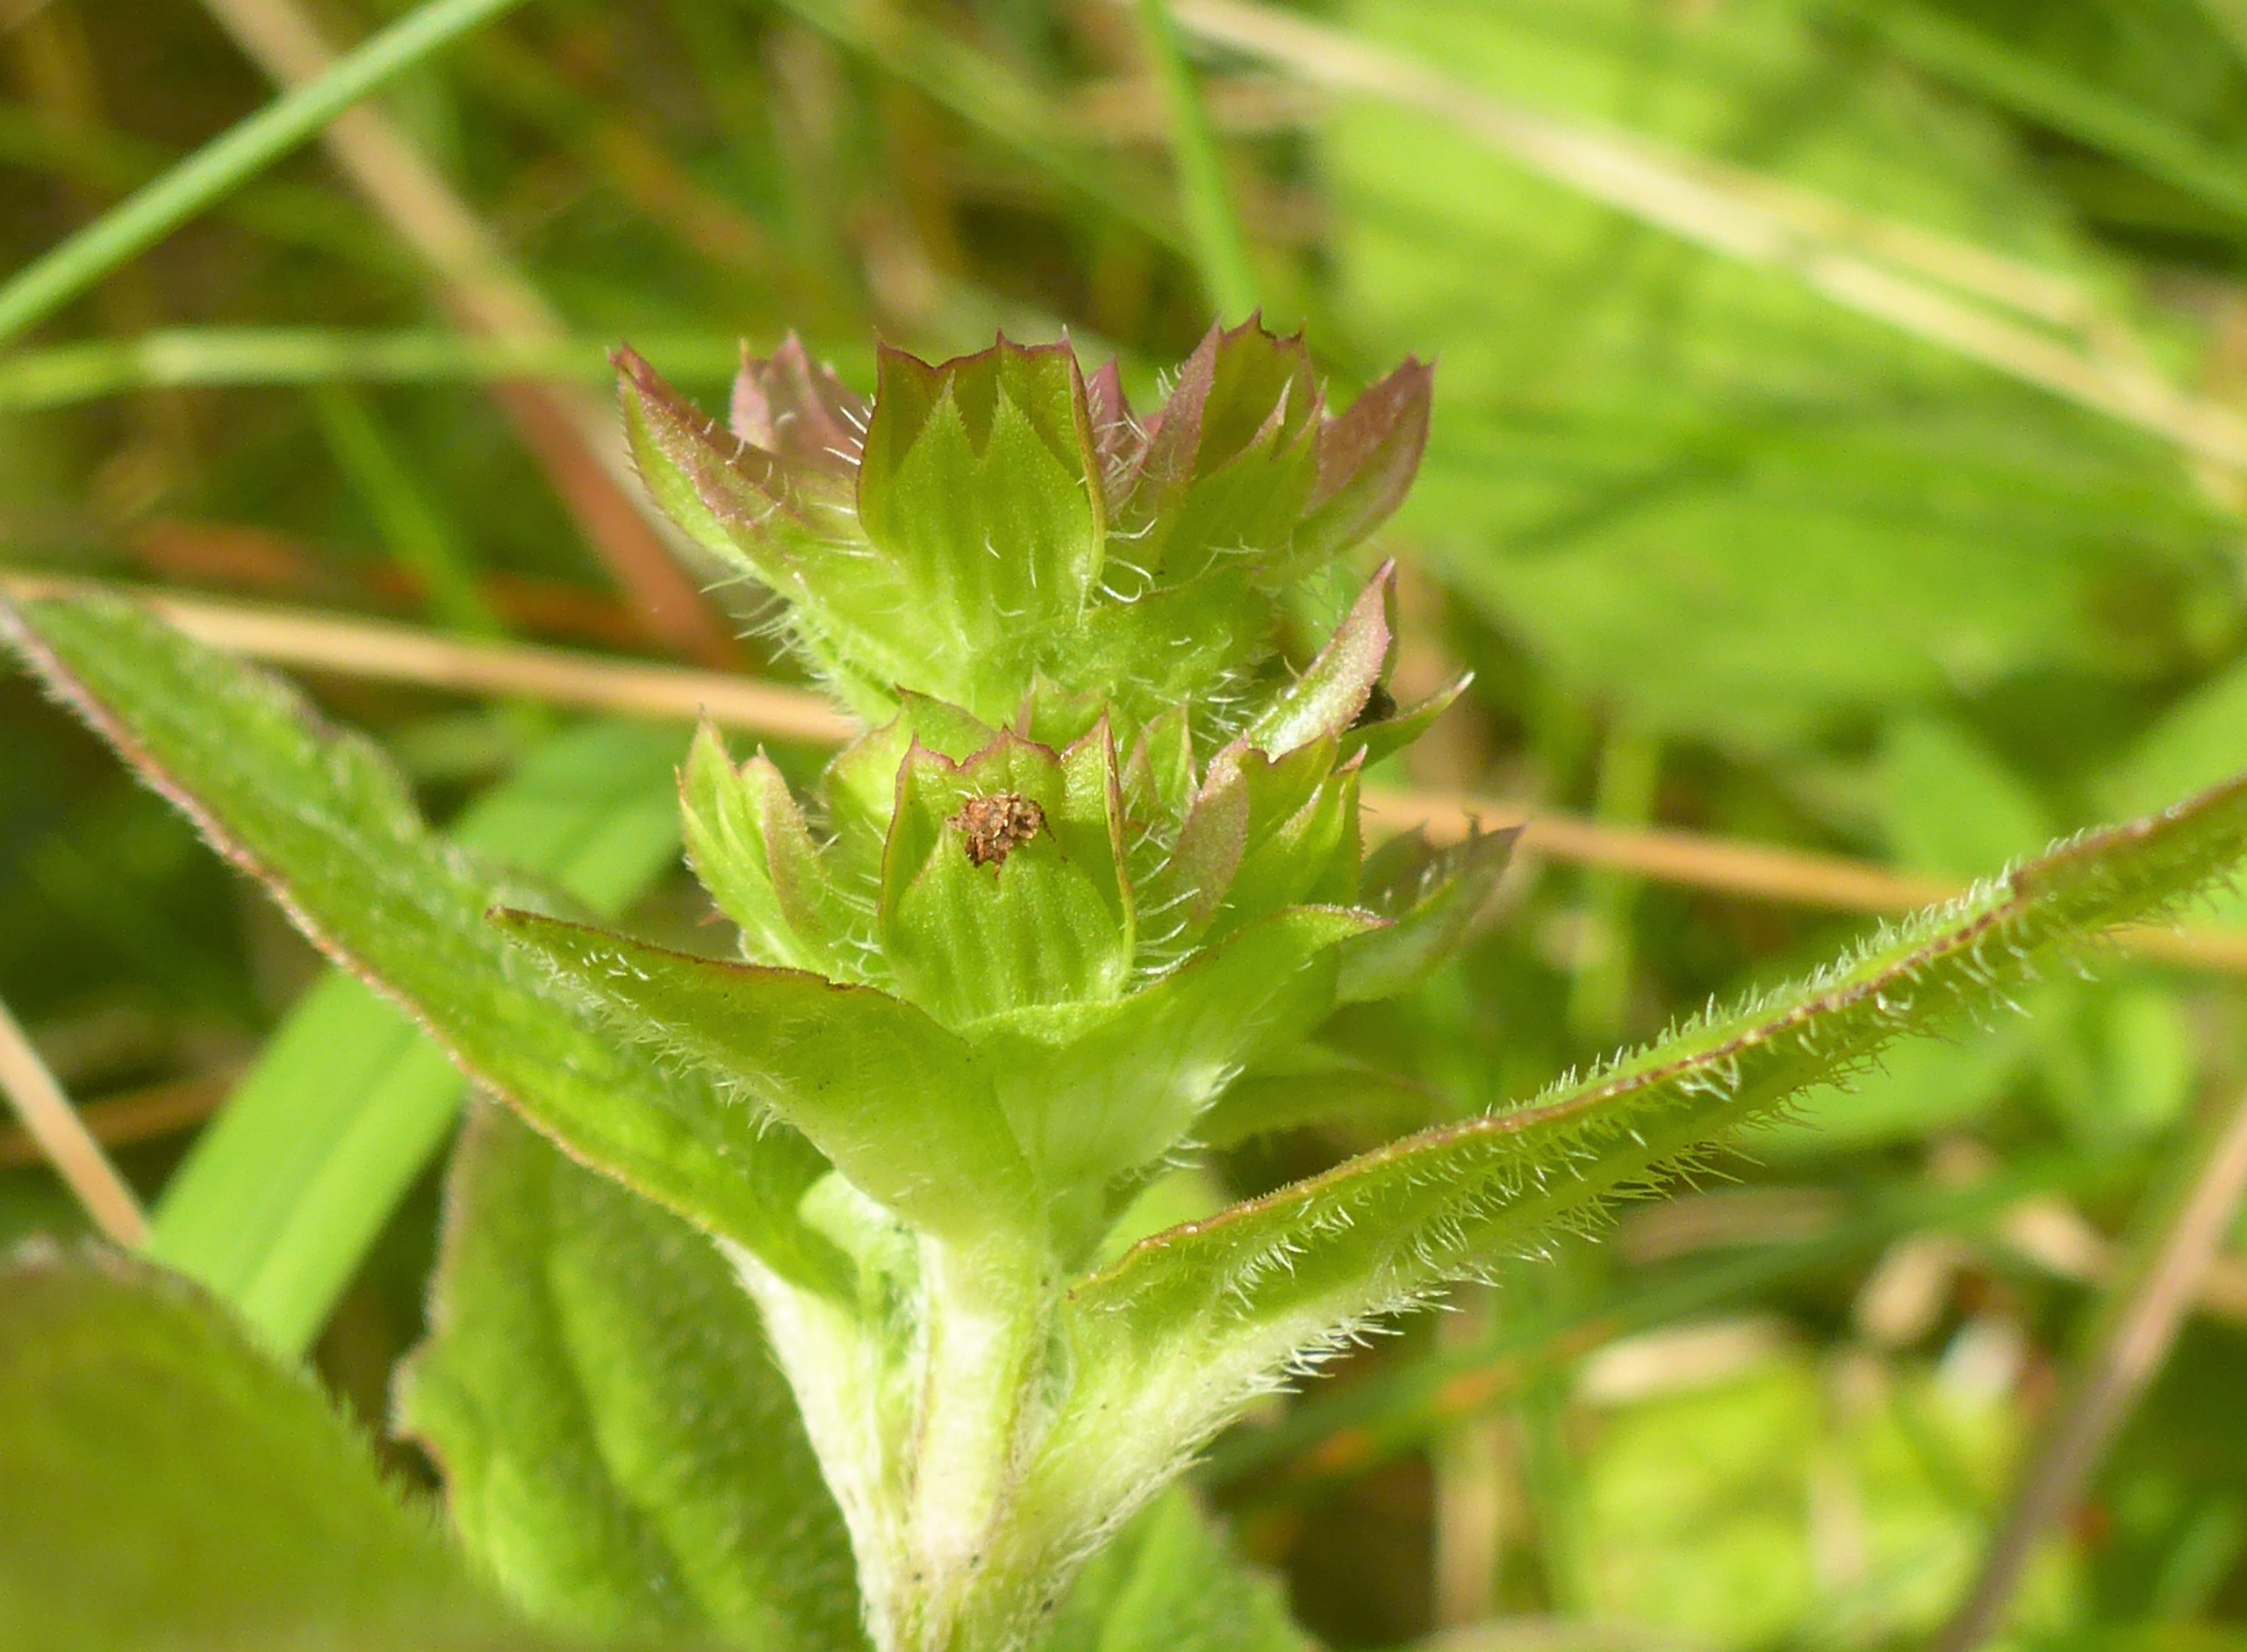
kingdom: Plantae
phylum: Tracheophyta
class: Magnoliopsida
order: Lamiales
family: Lamiaceae
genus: Prunella
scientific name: Prunella vulgaris
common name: Almindelig brunelle
